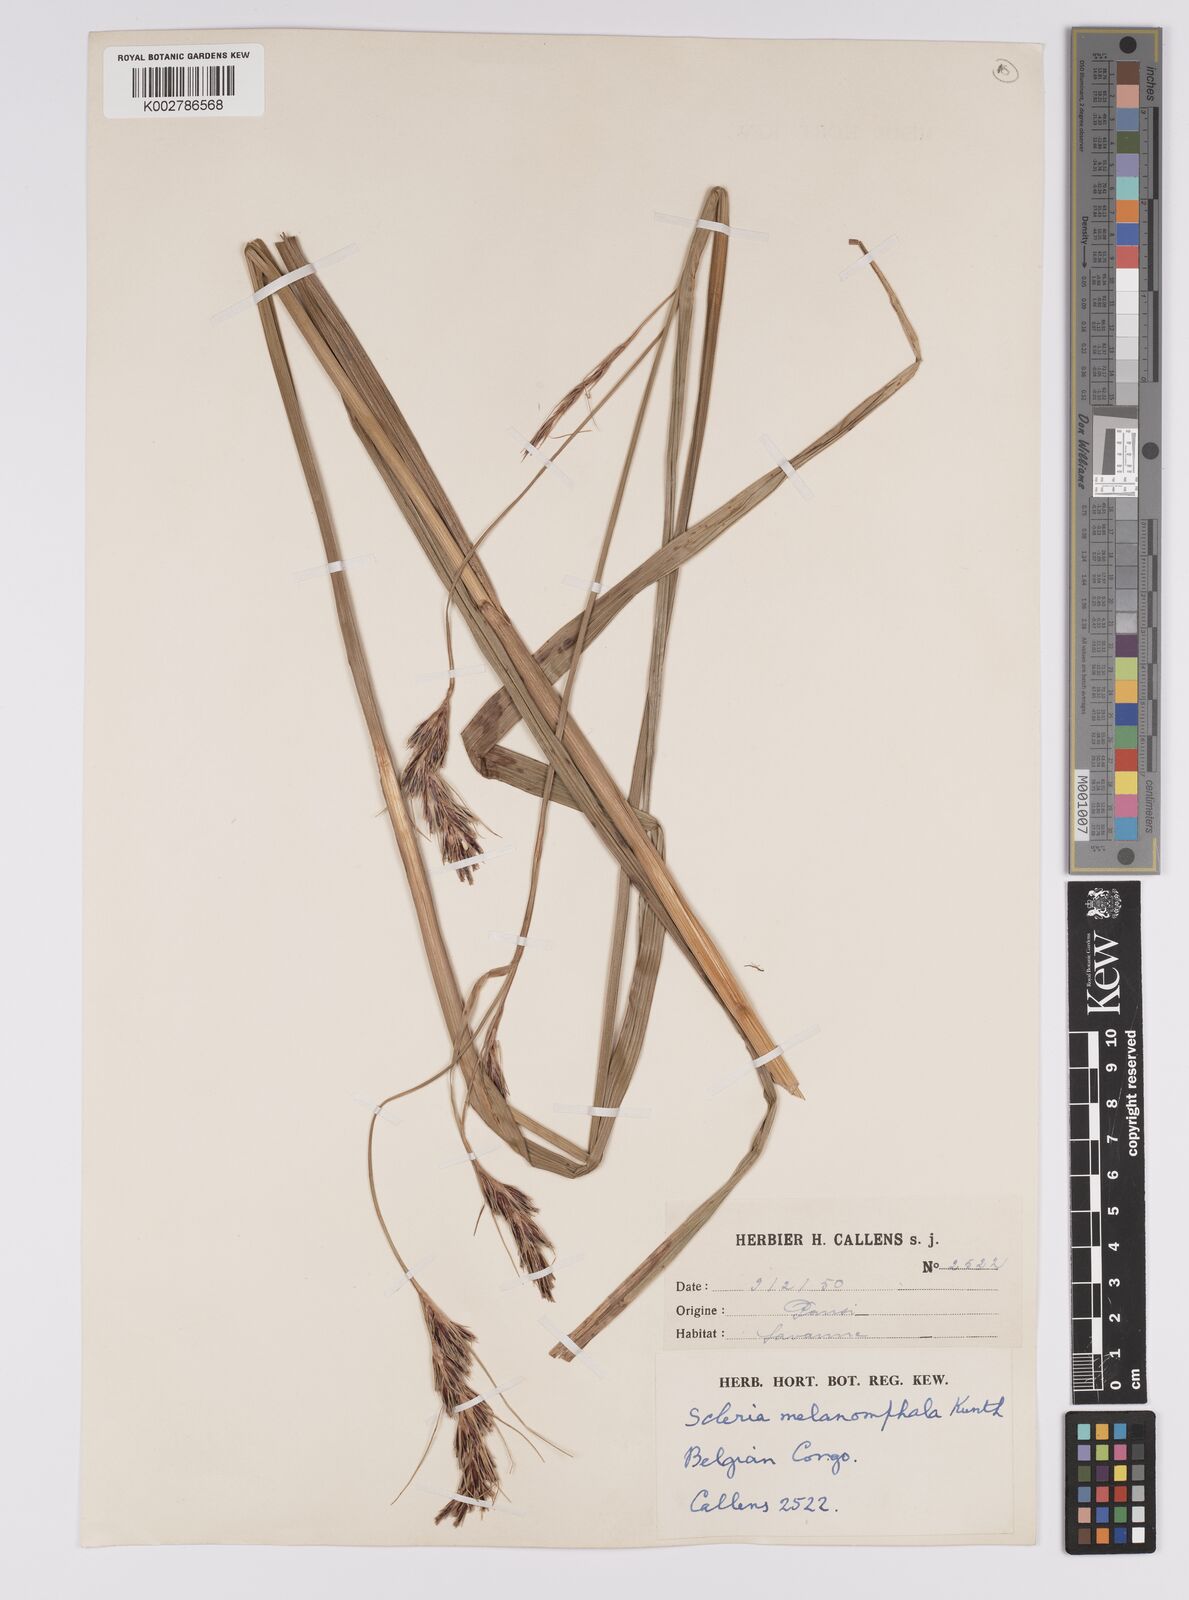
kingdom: Plantae
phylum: Tracheophyta
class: Liliopsida
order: Poales
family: Cyperaceae
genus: Scleria
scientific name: Scleria melanomphala
